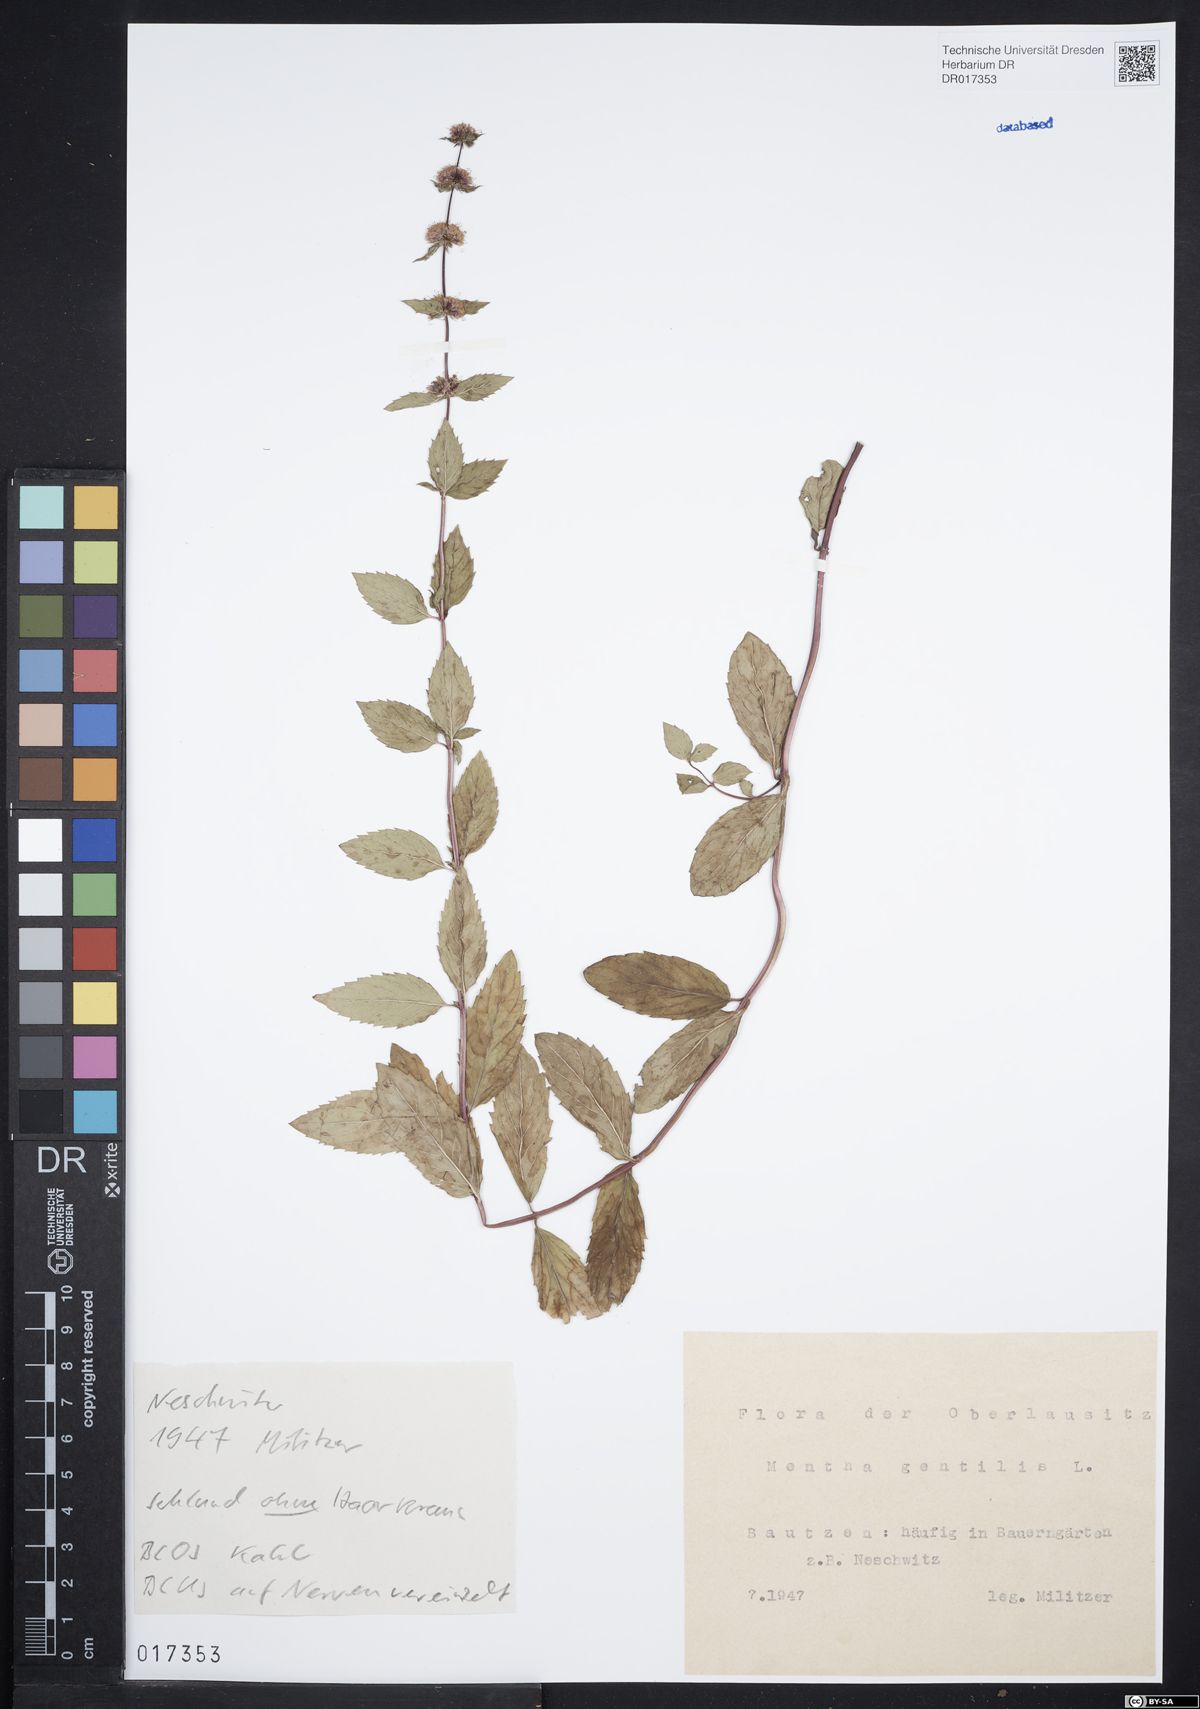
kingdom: Plantae
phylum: Tracheophyta
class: Magnoliopsida
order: Lamiales
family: Lamiaceae
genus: Mentha
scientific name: Mentha gracilis
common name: Bushy mint
